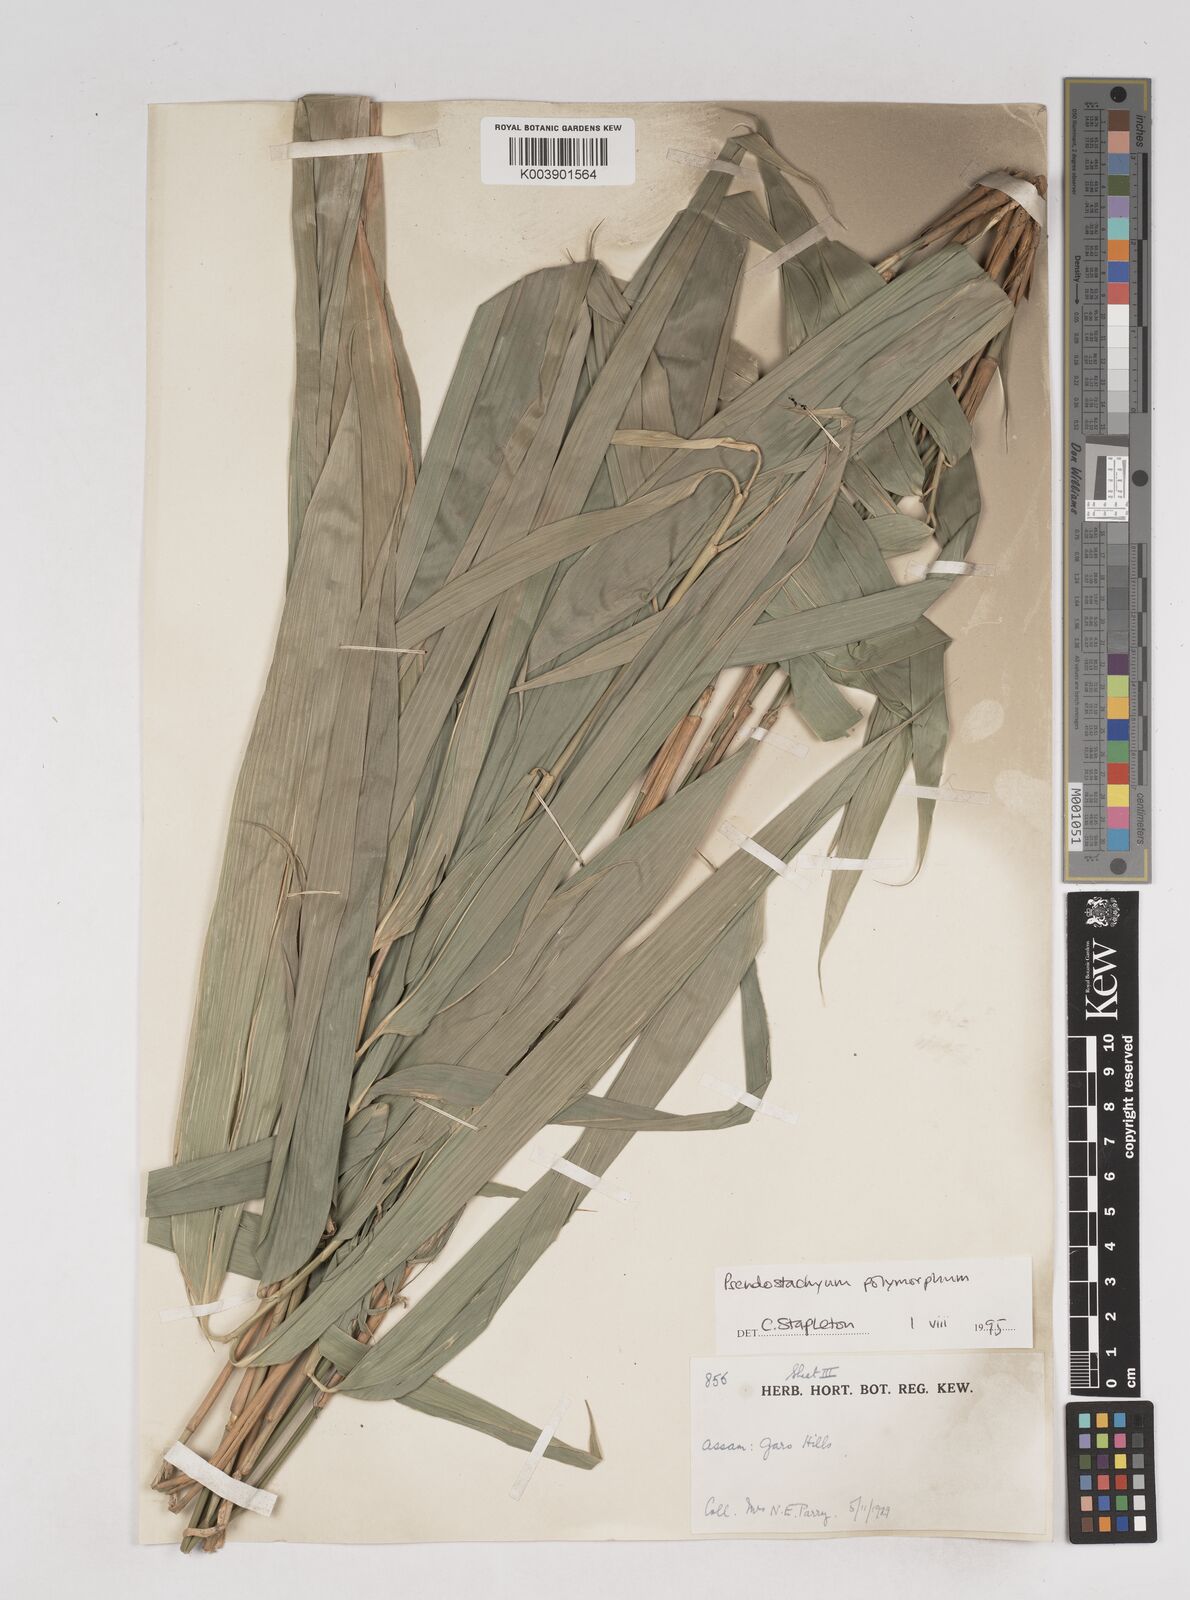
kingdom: Plantae
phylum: Tracheophyta
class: Liliopsida
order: Poales
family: Poaceae
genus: Pseudostachyum
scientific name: Pseudostachyum polymorphum
